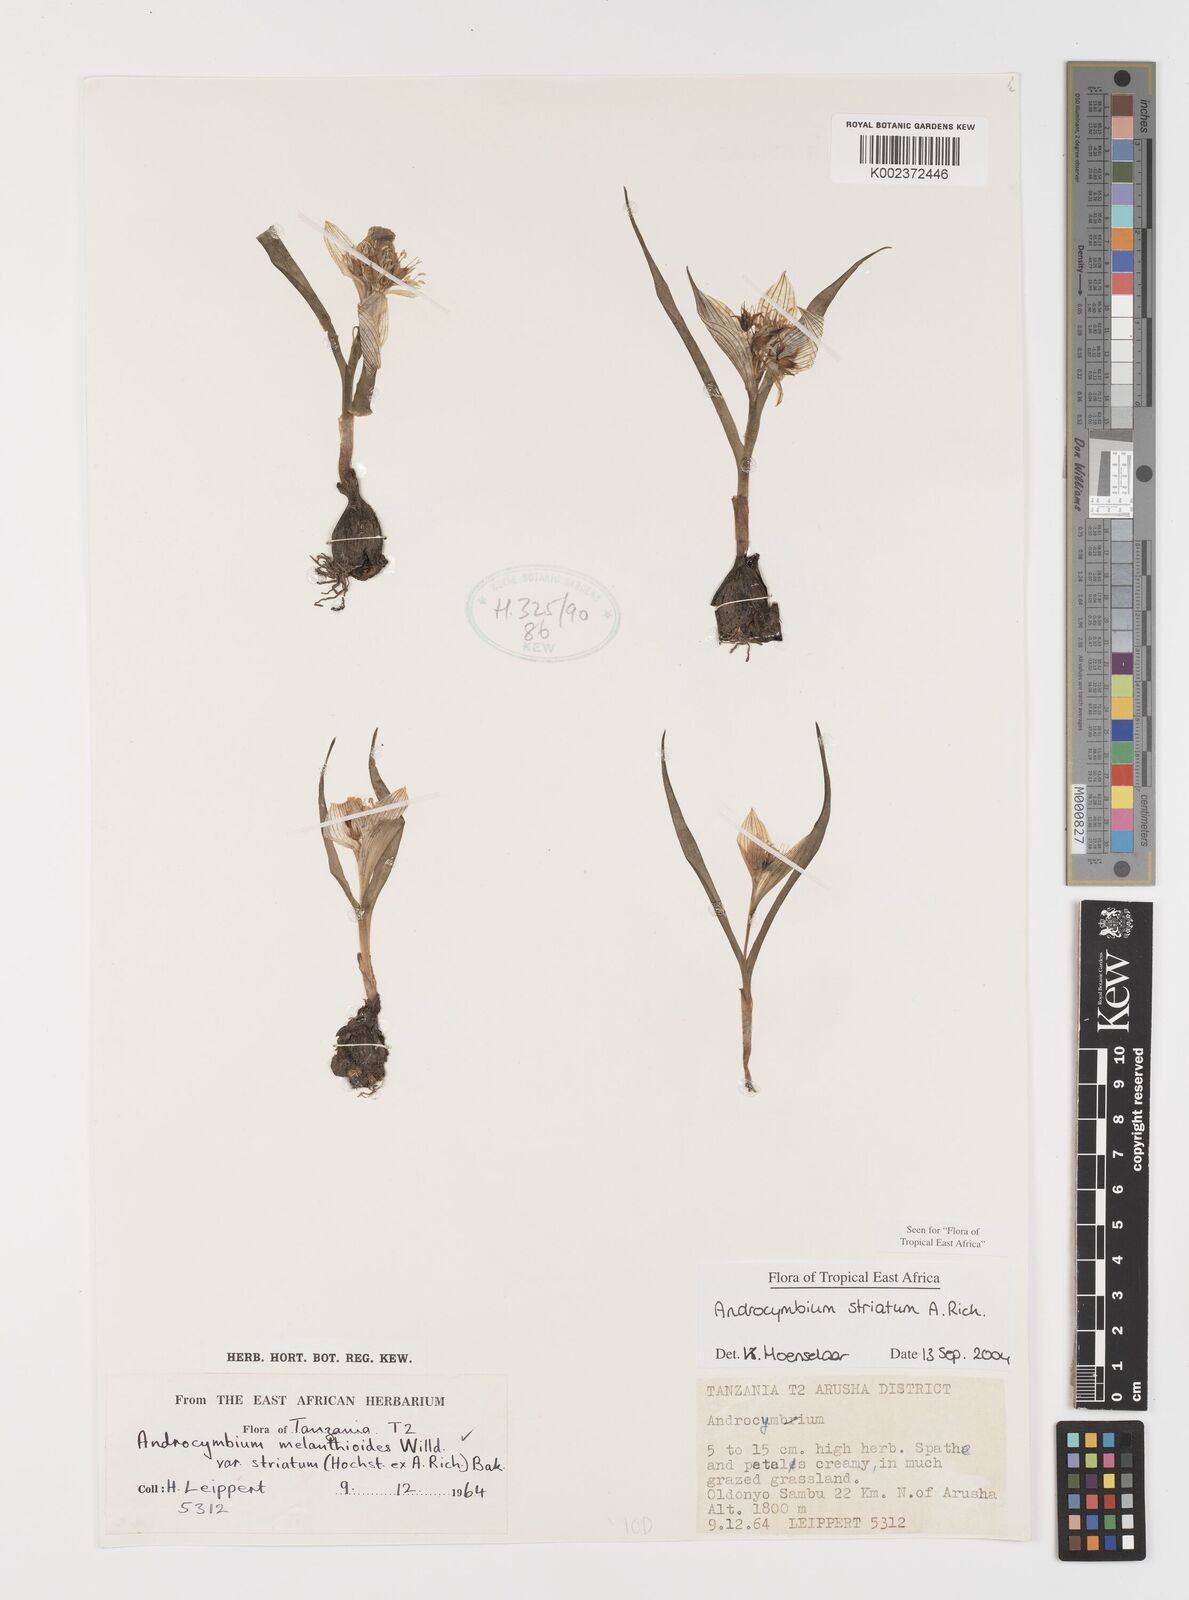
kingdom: Plantae
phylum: Tracheophyta
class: Liliopsida
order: Liliales
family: Colchicaceae
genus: Colchicum
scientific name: Colchicum striatum
